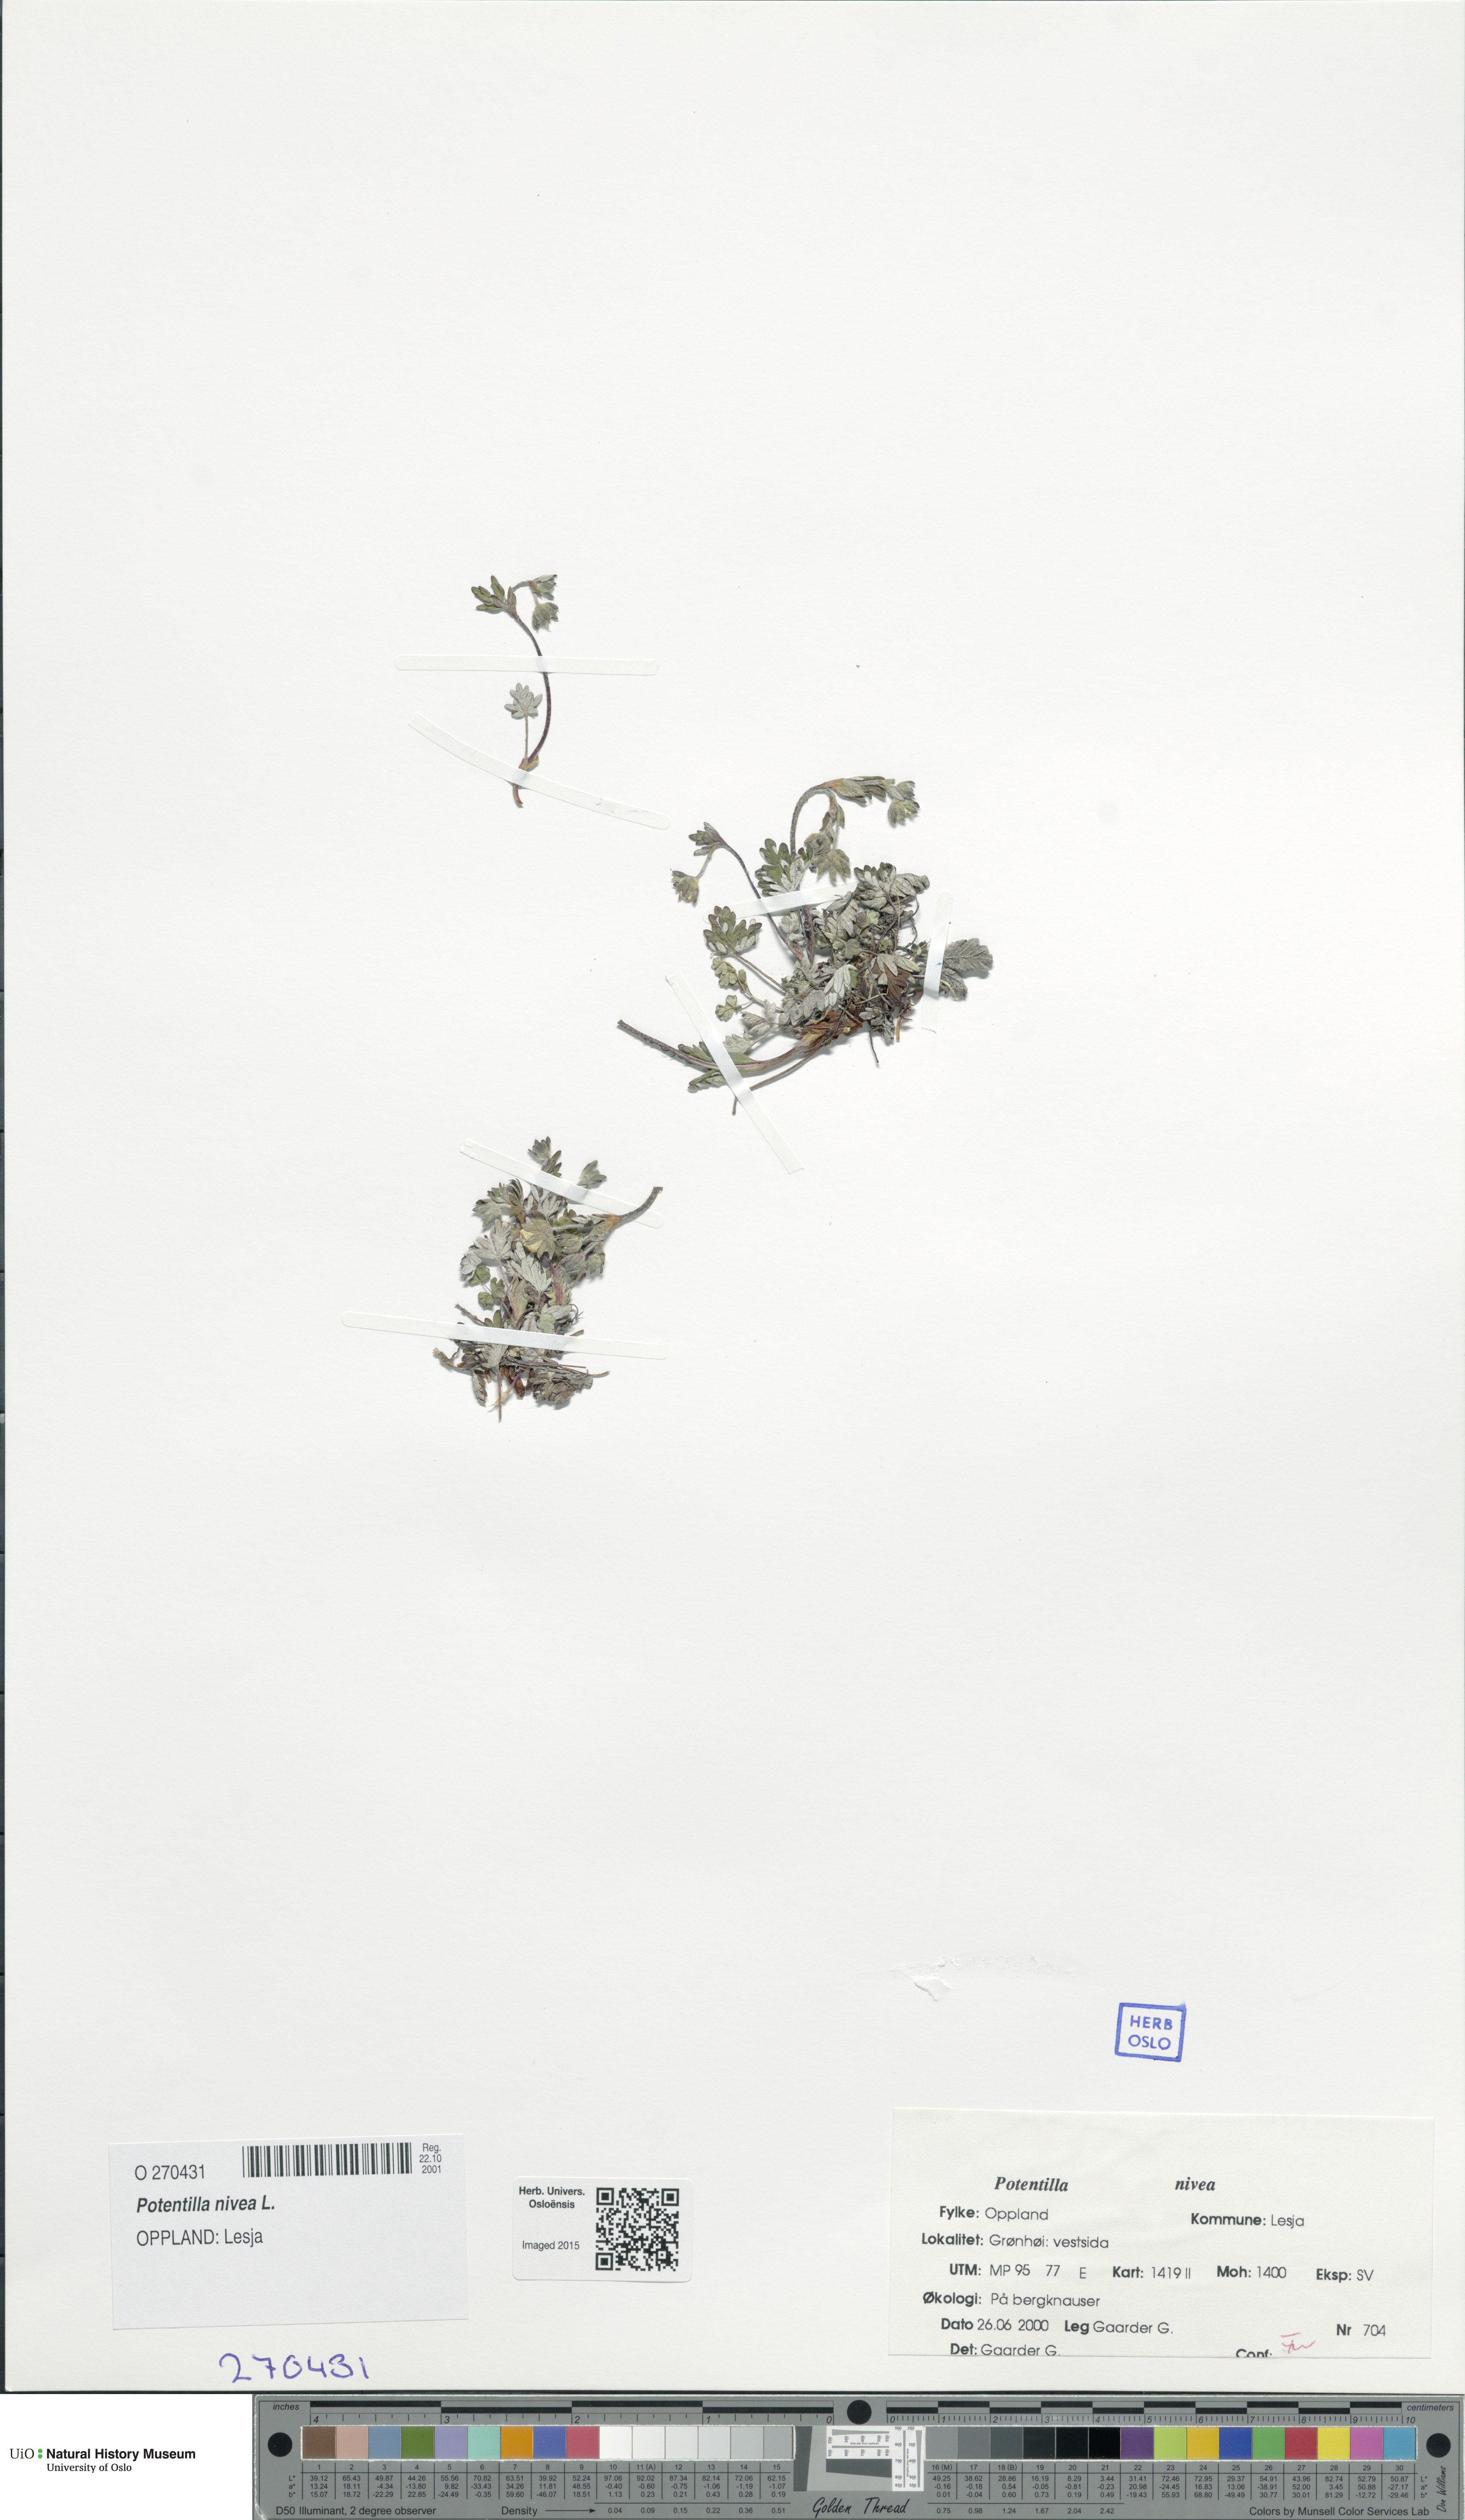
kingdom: Plantae
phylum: Tracheophyta
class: Magnoliopsida
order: Rosales
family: Rosaceae
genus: Potentilla
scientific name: Potentilla arenosa
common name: Bluff cinquefoil
